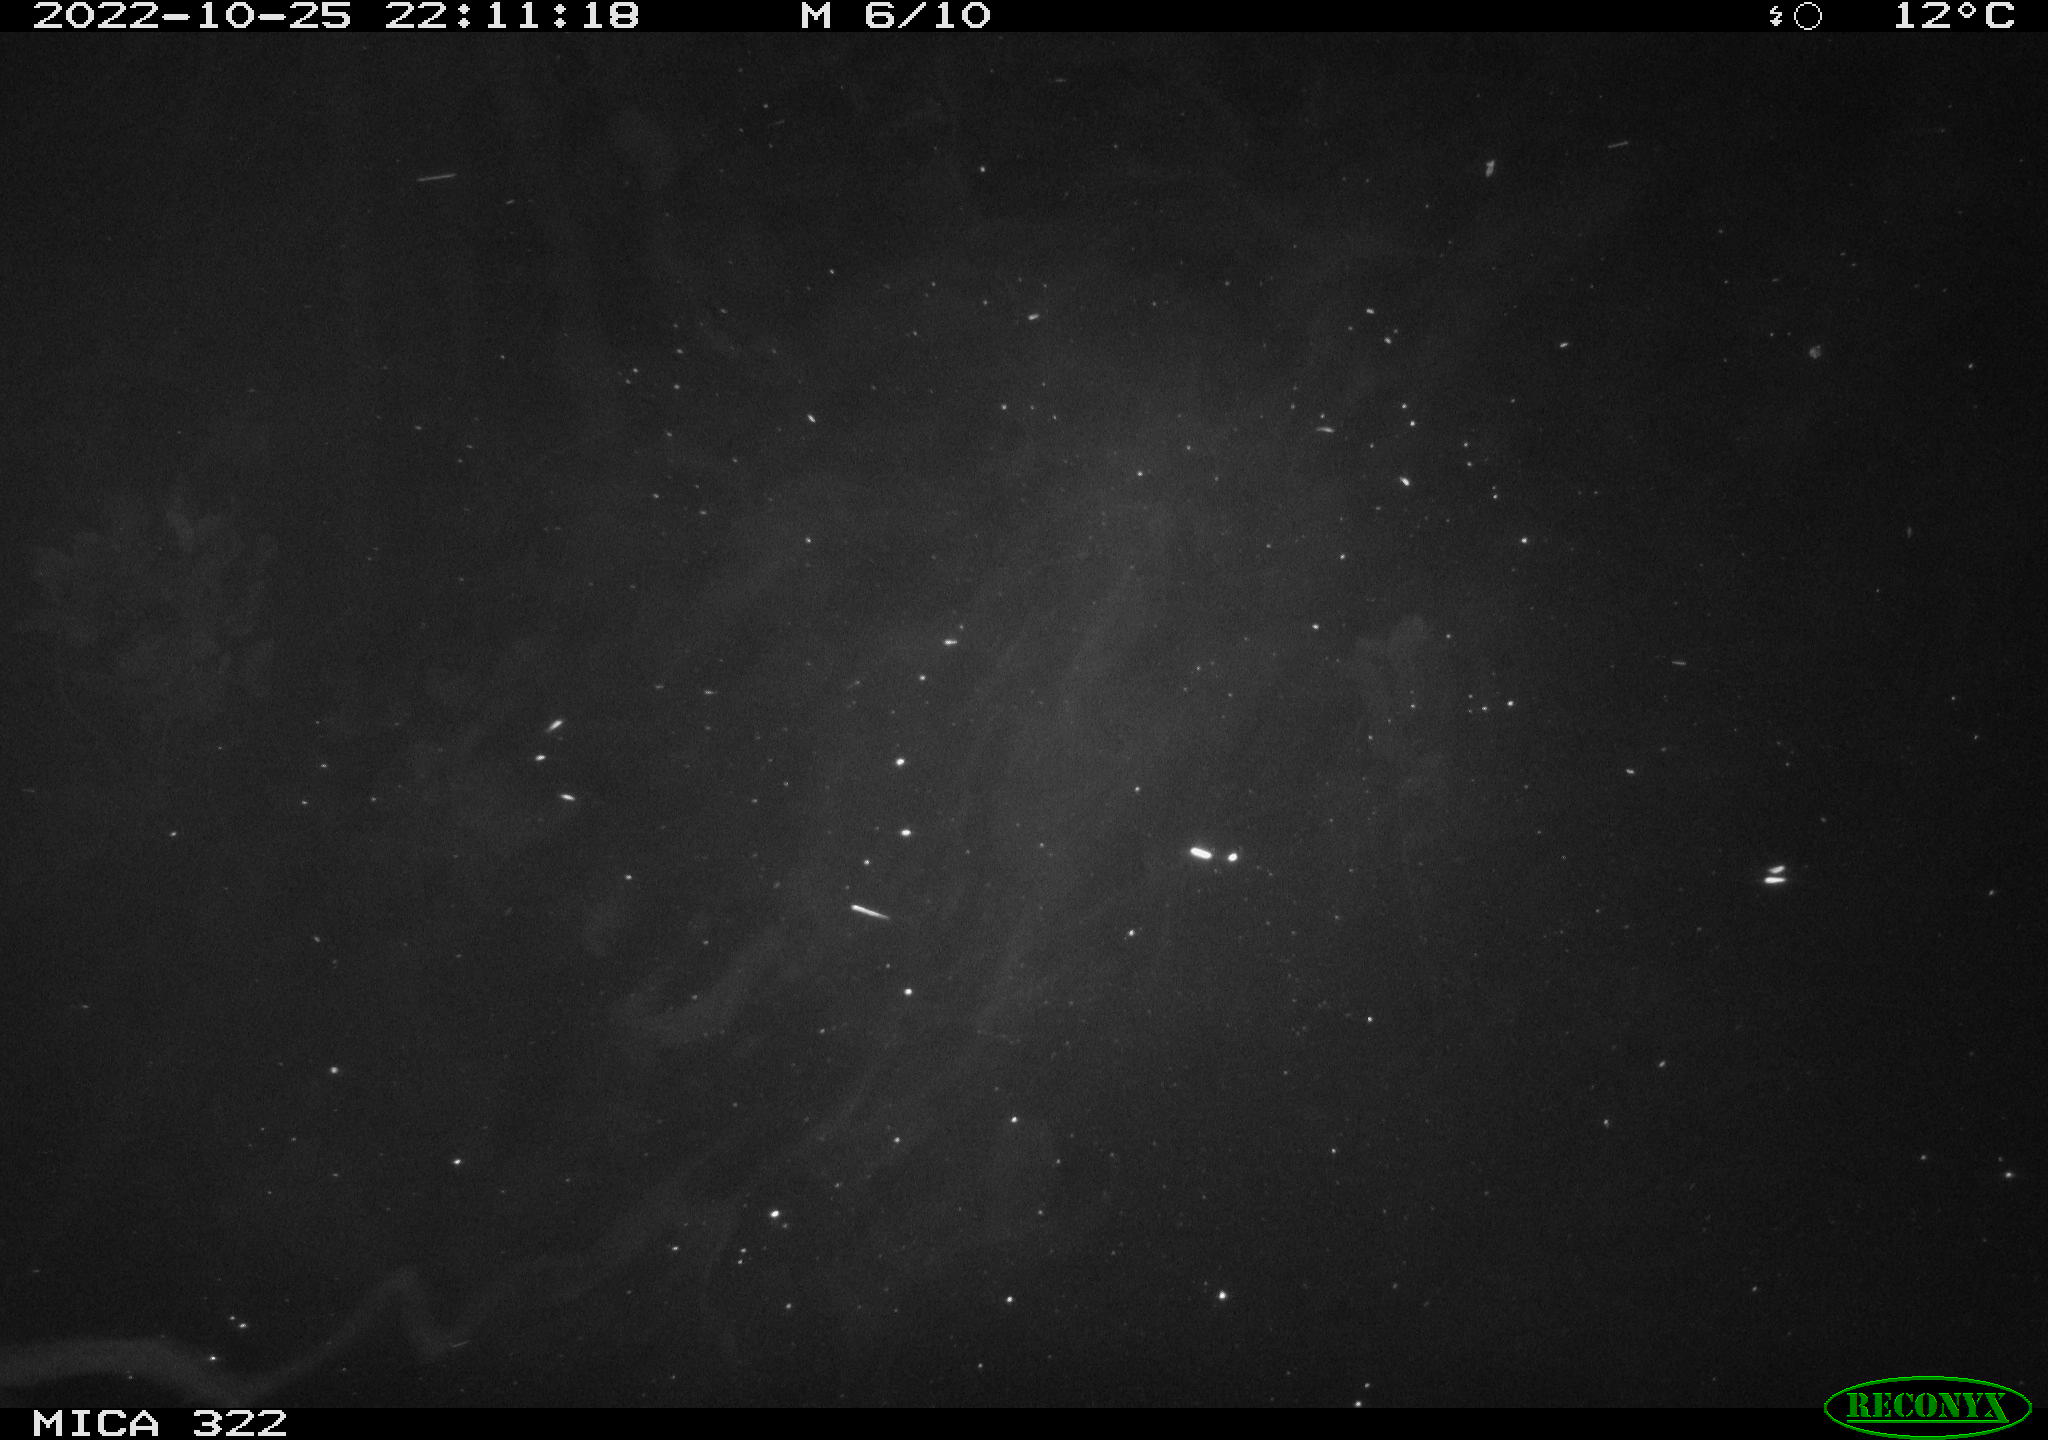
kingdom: Animalia
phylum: Chordata
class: Mammalia
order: Rodentia
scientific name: Rodentia
